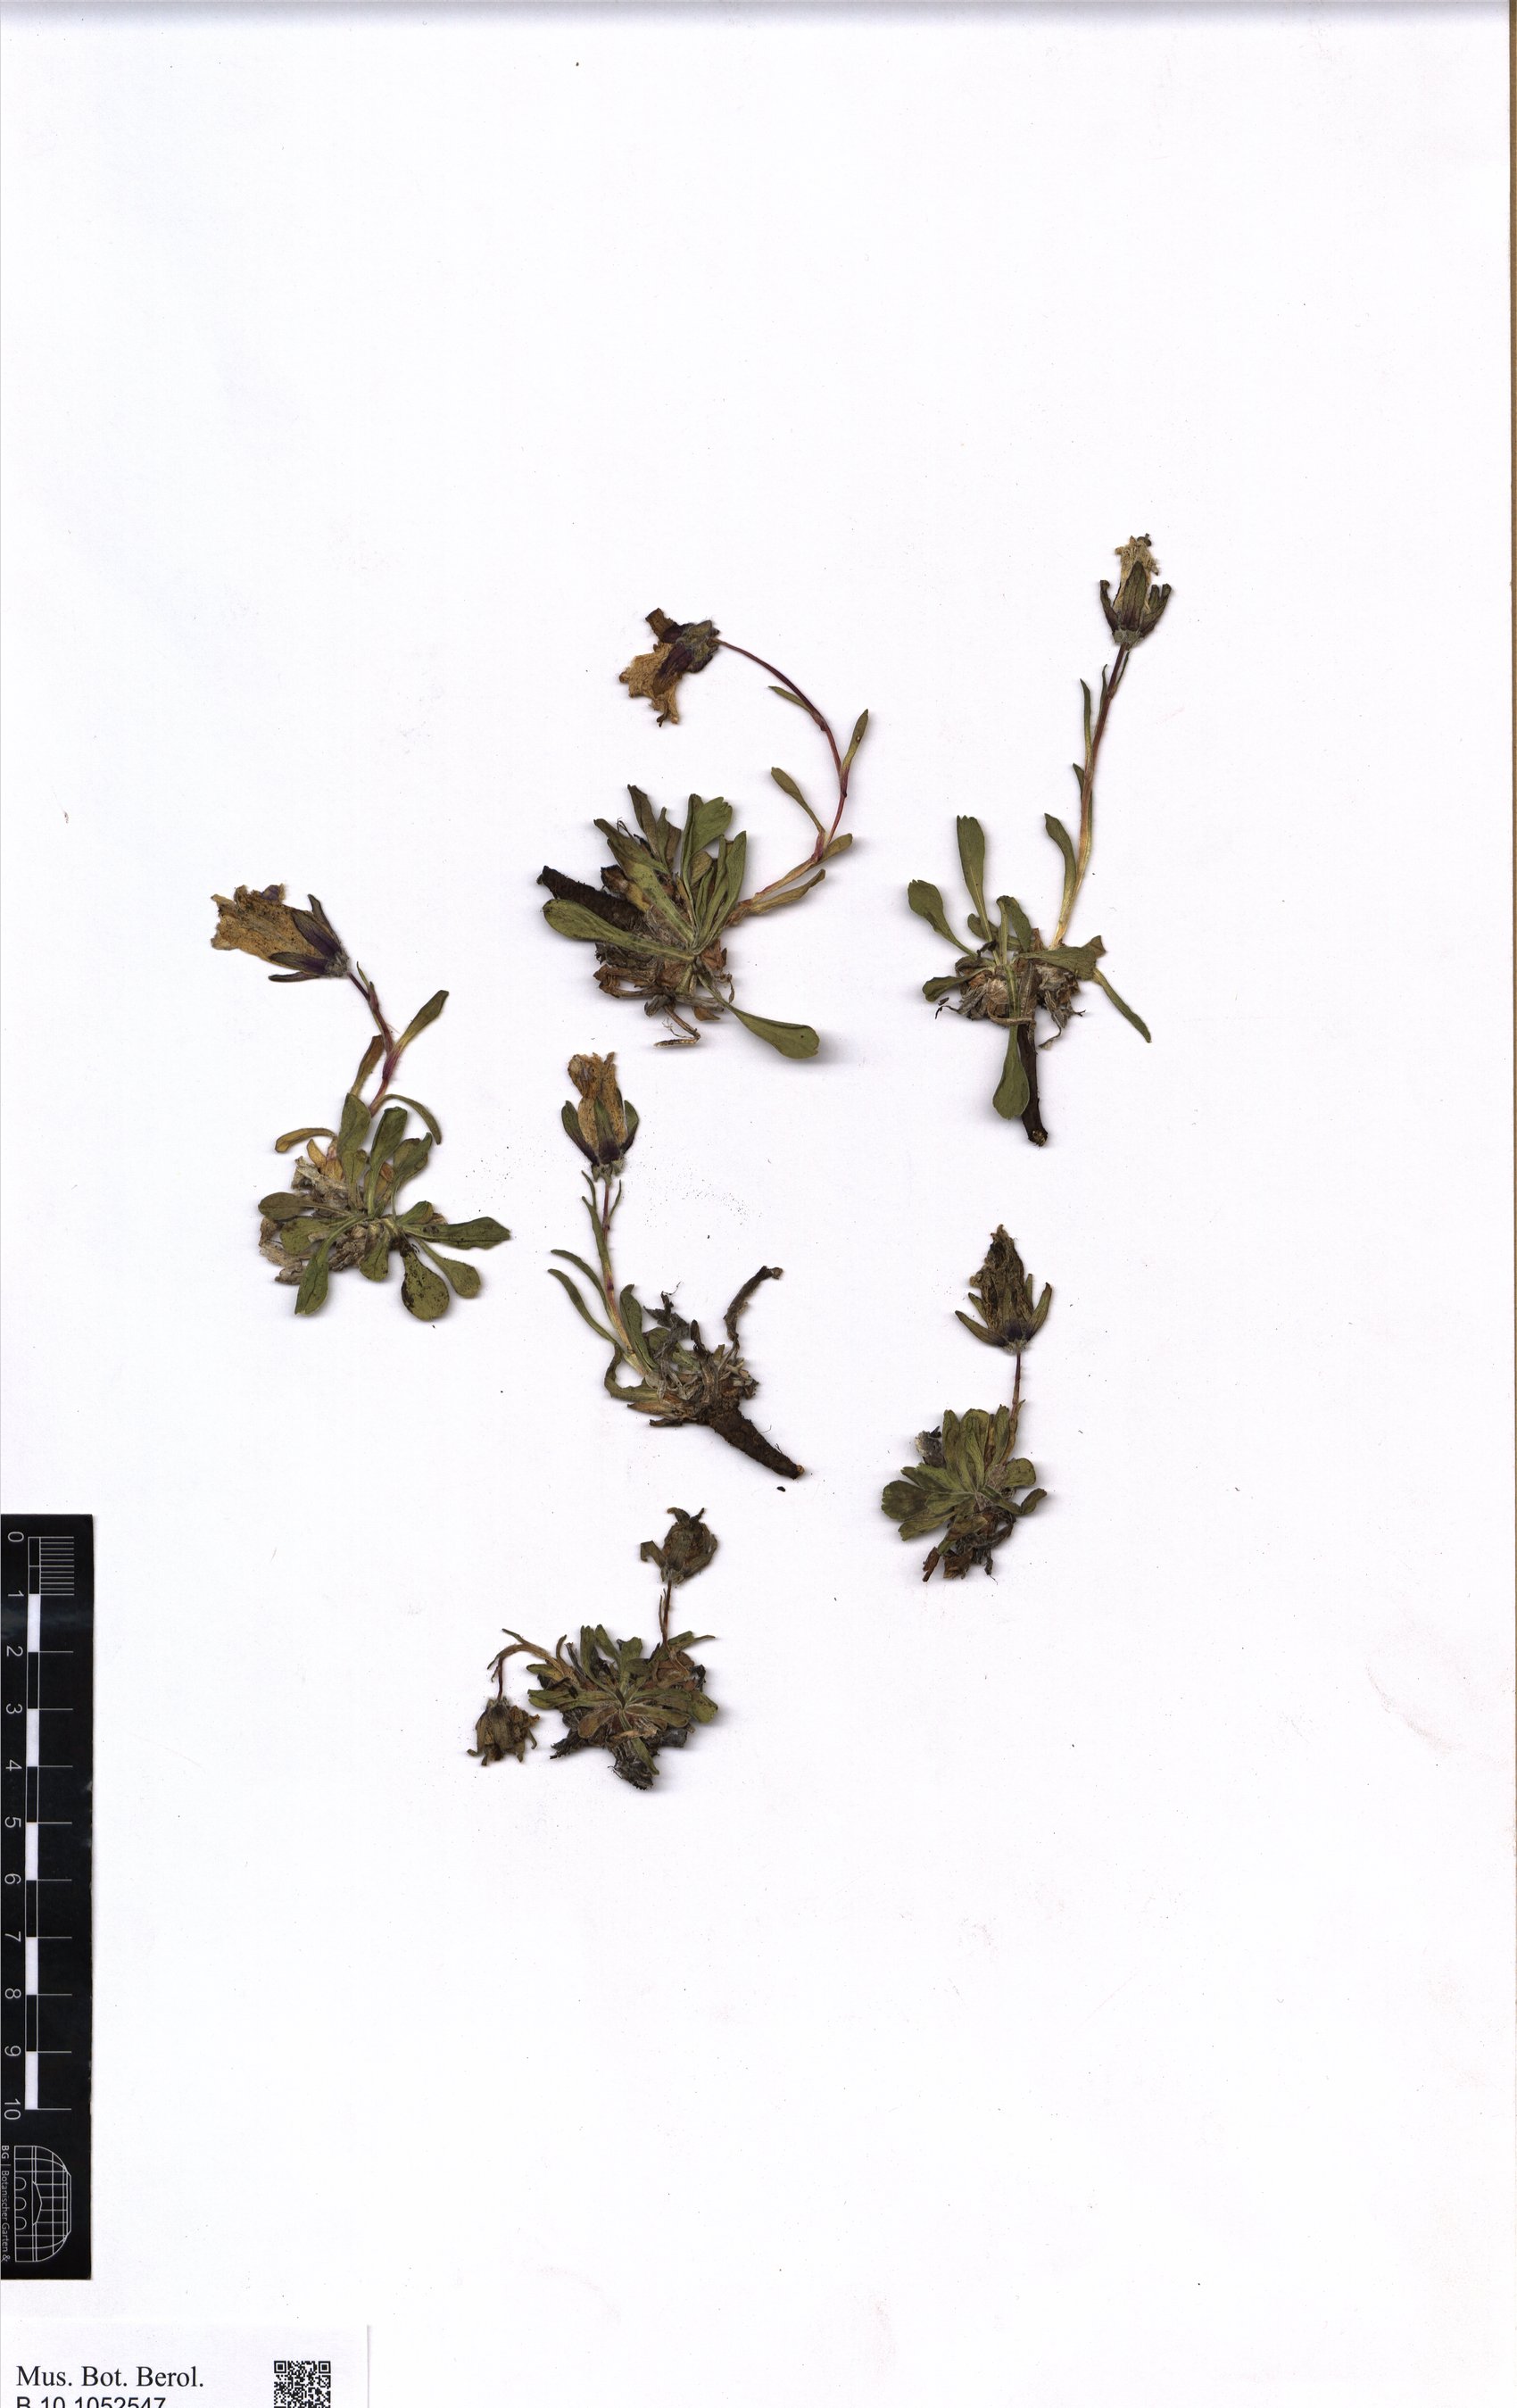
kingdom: Plantae
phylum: Tracheophyta
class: Magnoliopsida
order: Asterales
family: Campanulaceae
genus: Campanula
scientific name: Campanula tridentata
